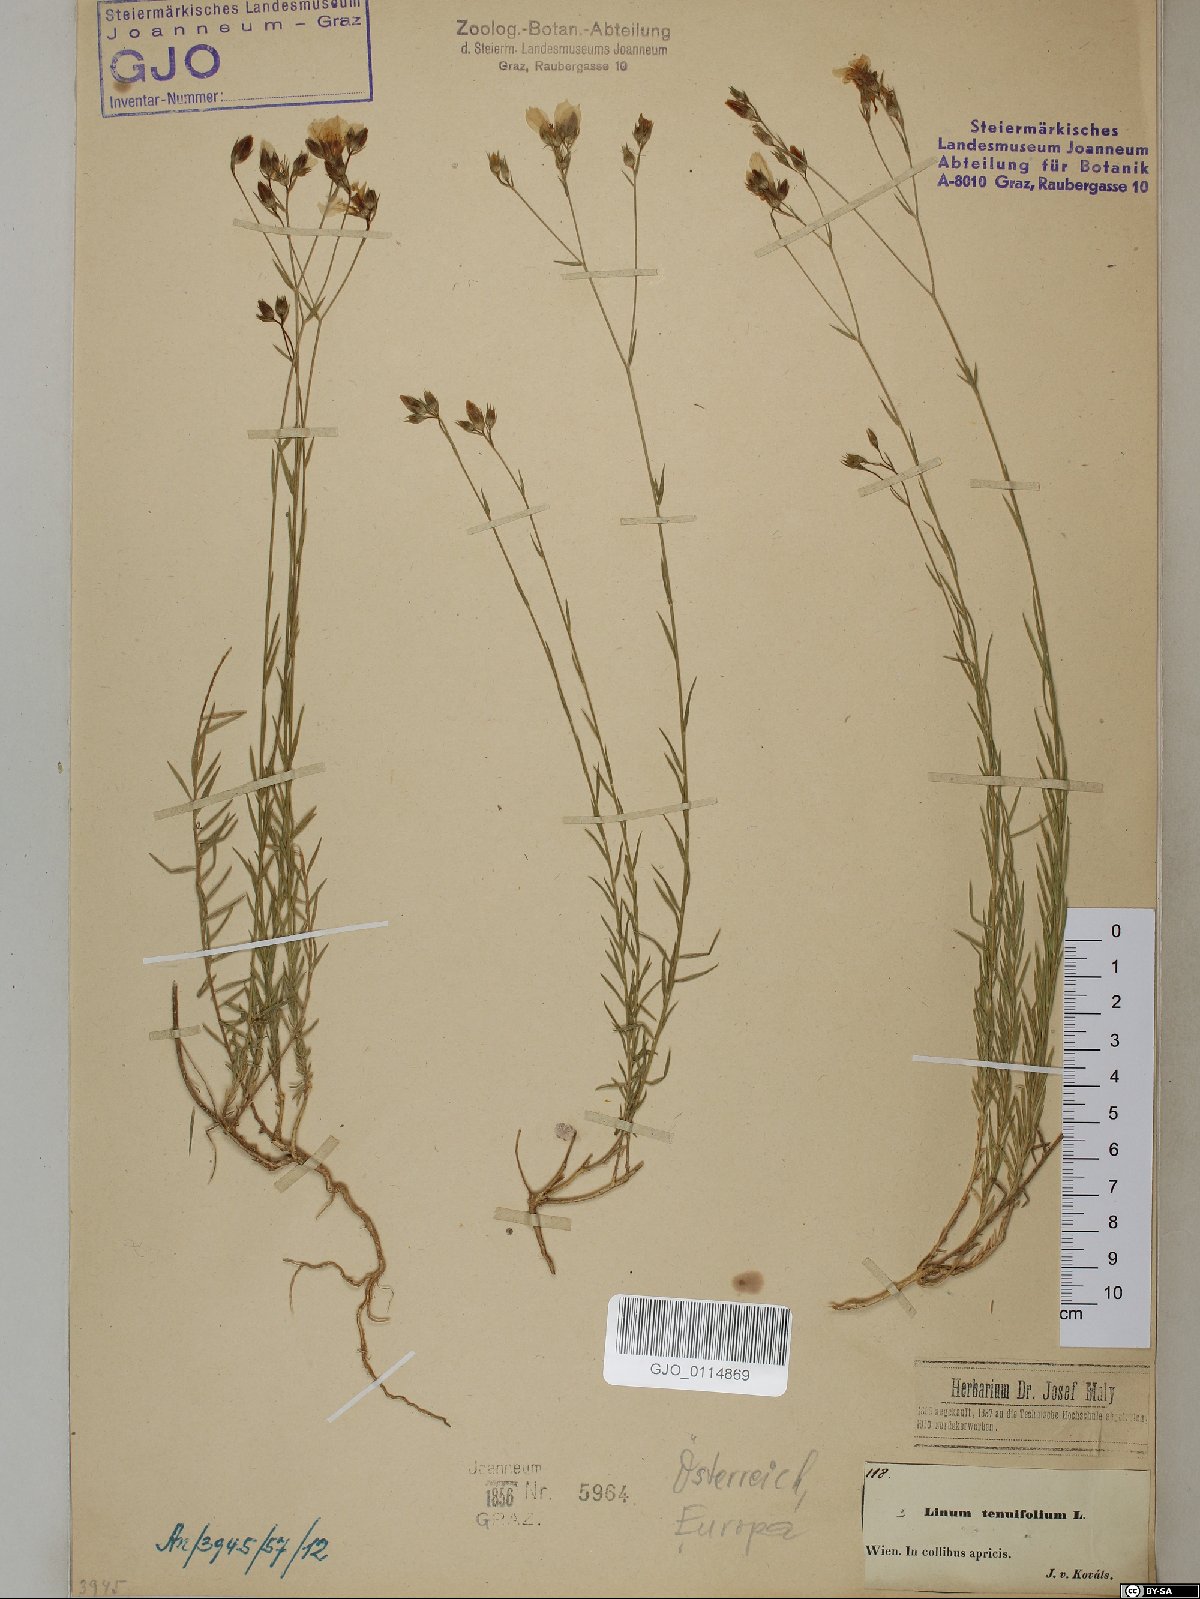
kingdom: Plantae
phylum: Tracheophyta
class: Magnoliopsida
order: Malpighiales
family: Linaceae
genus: Linum
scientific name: Linum tenuifolium
